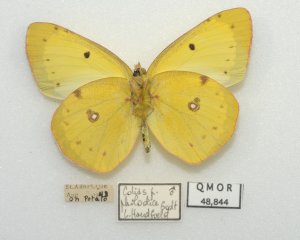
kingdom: Animalia
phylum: Arthropoda
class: Insecta
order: Lepidoptera
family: Pieridae
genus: Colias
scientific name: Colias philodice
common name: Clouded Sulphur
